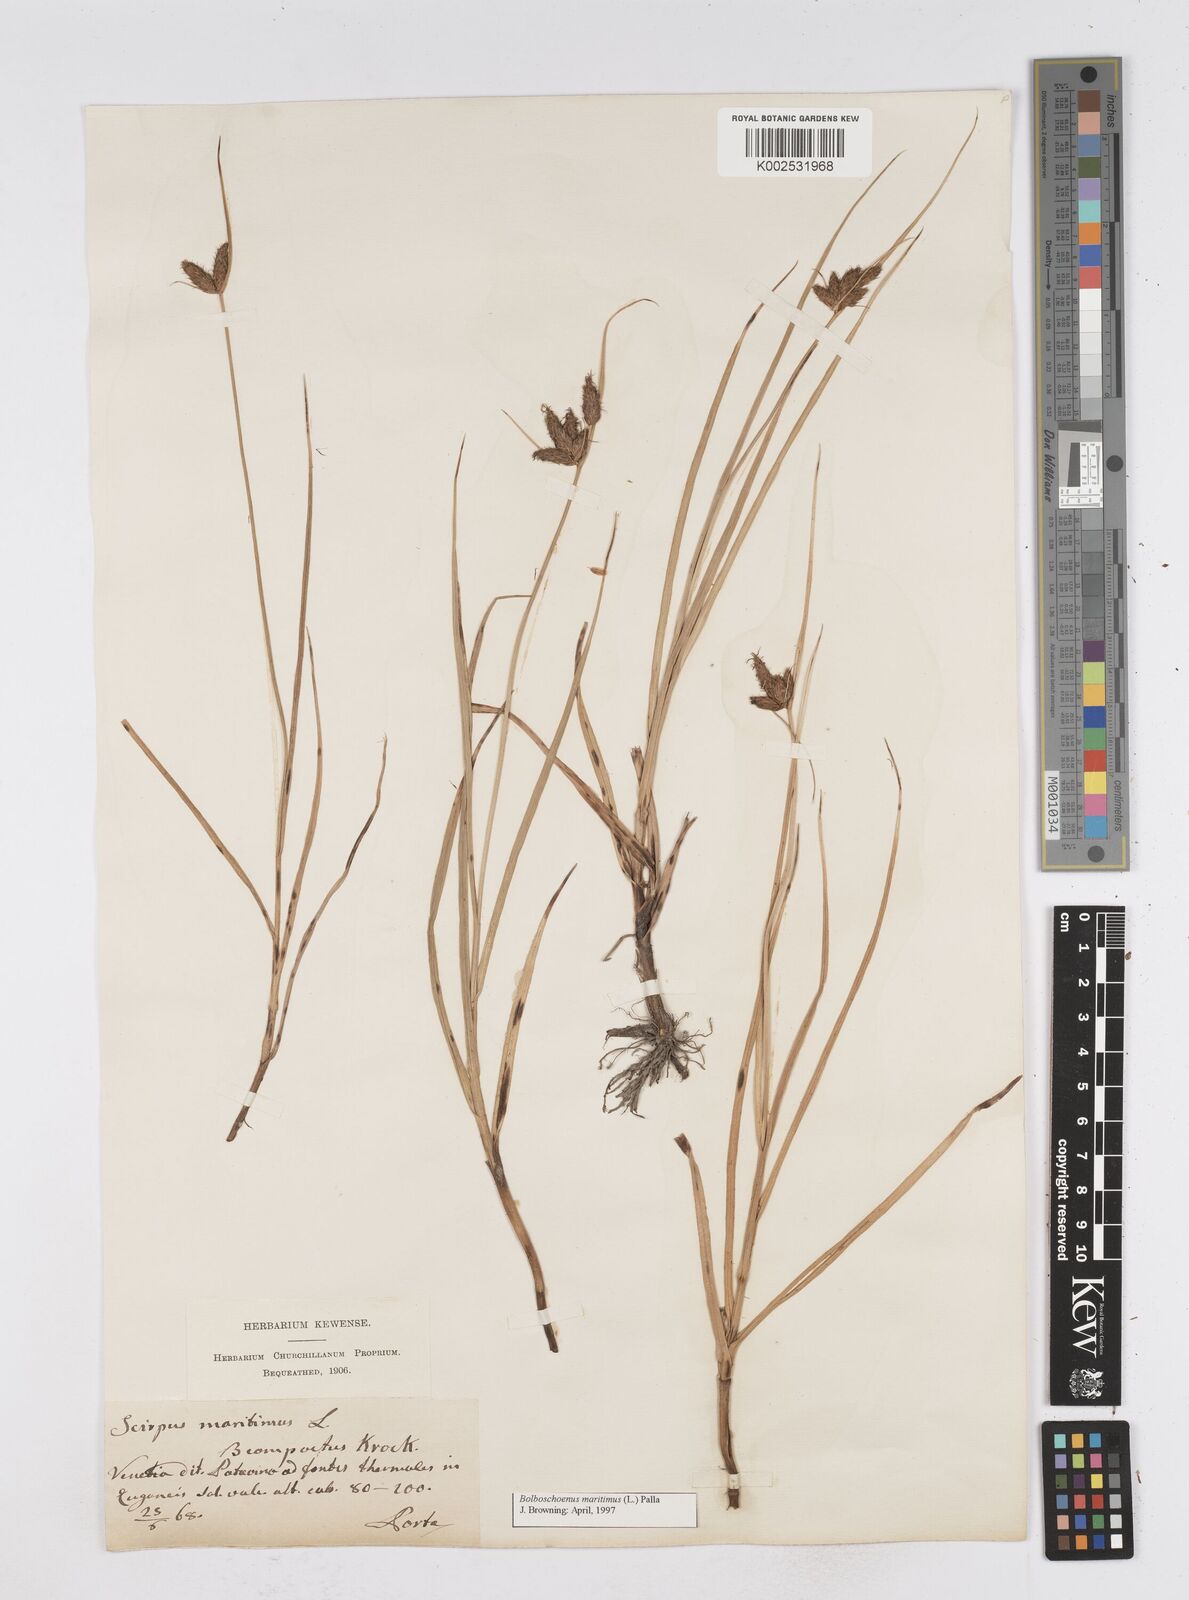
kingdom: Plantae
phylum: Tracheophyta
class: Liliopsida
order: Poales
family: Cyperaceae
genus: Bolboschoenus
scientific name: Bolboschoenus maritimus
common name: Sea club-rush
